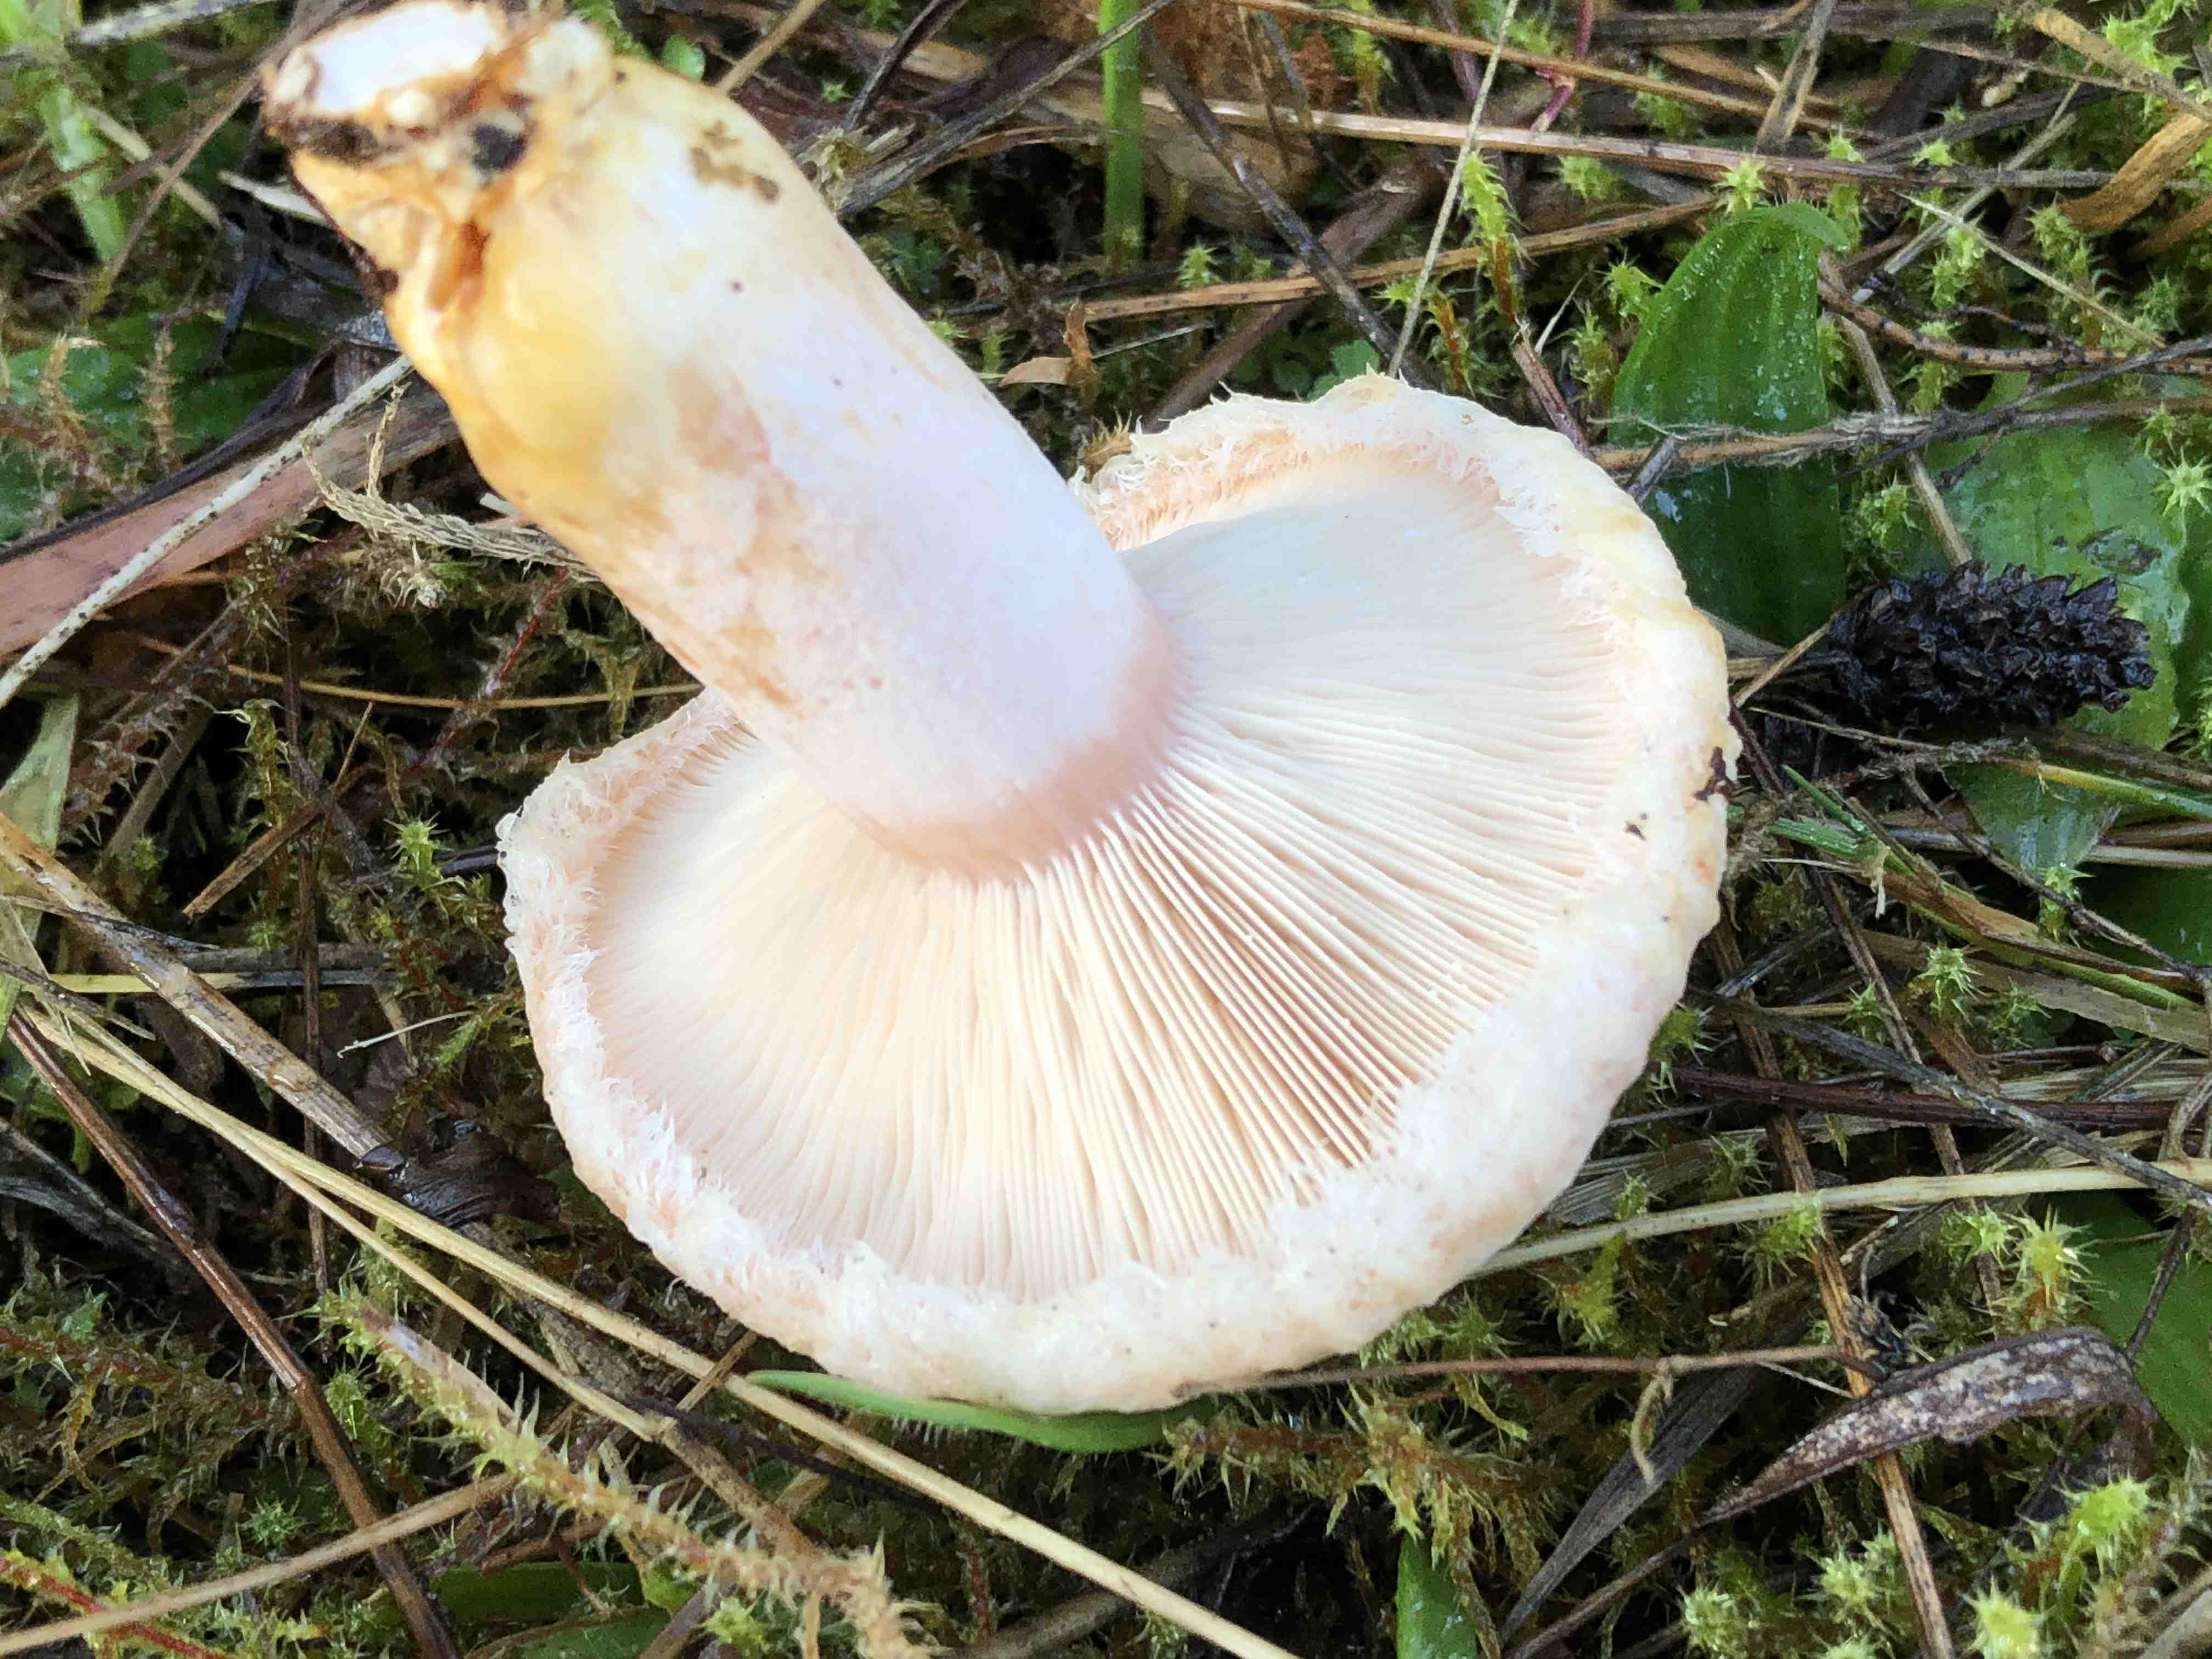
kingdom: Fungi
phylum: Basidiomycota
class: Agaricomycetes
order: Russulales
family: Russulaceae
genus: Lactarius
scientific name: Lactarius torminosus
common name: skægget mælkehat
